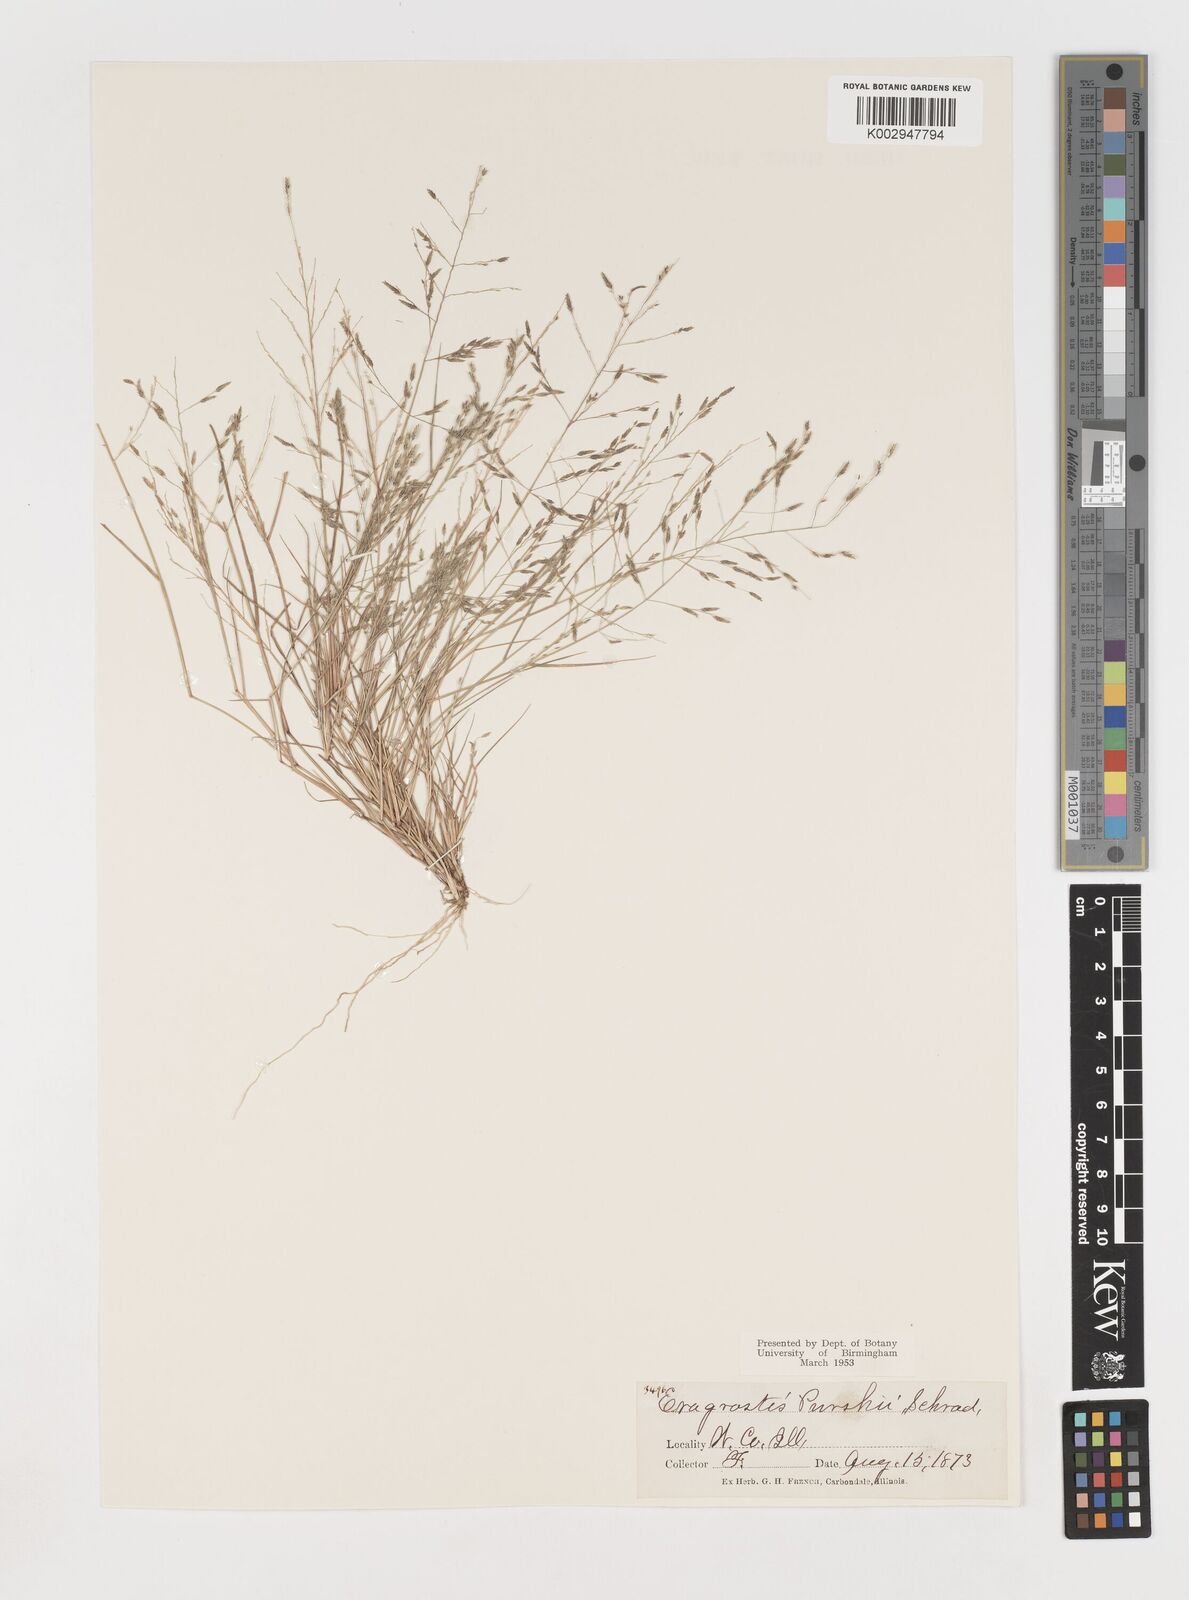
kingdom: Plantae
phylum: Tracheophyta
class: Liliopsida
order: Poales
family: Poaceae
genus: Eragrostis
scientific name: Eragrostis pectinacea
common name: Tufted lovegrass
